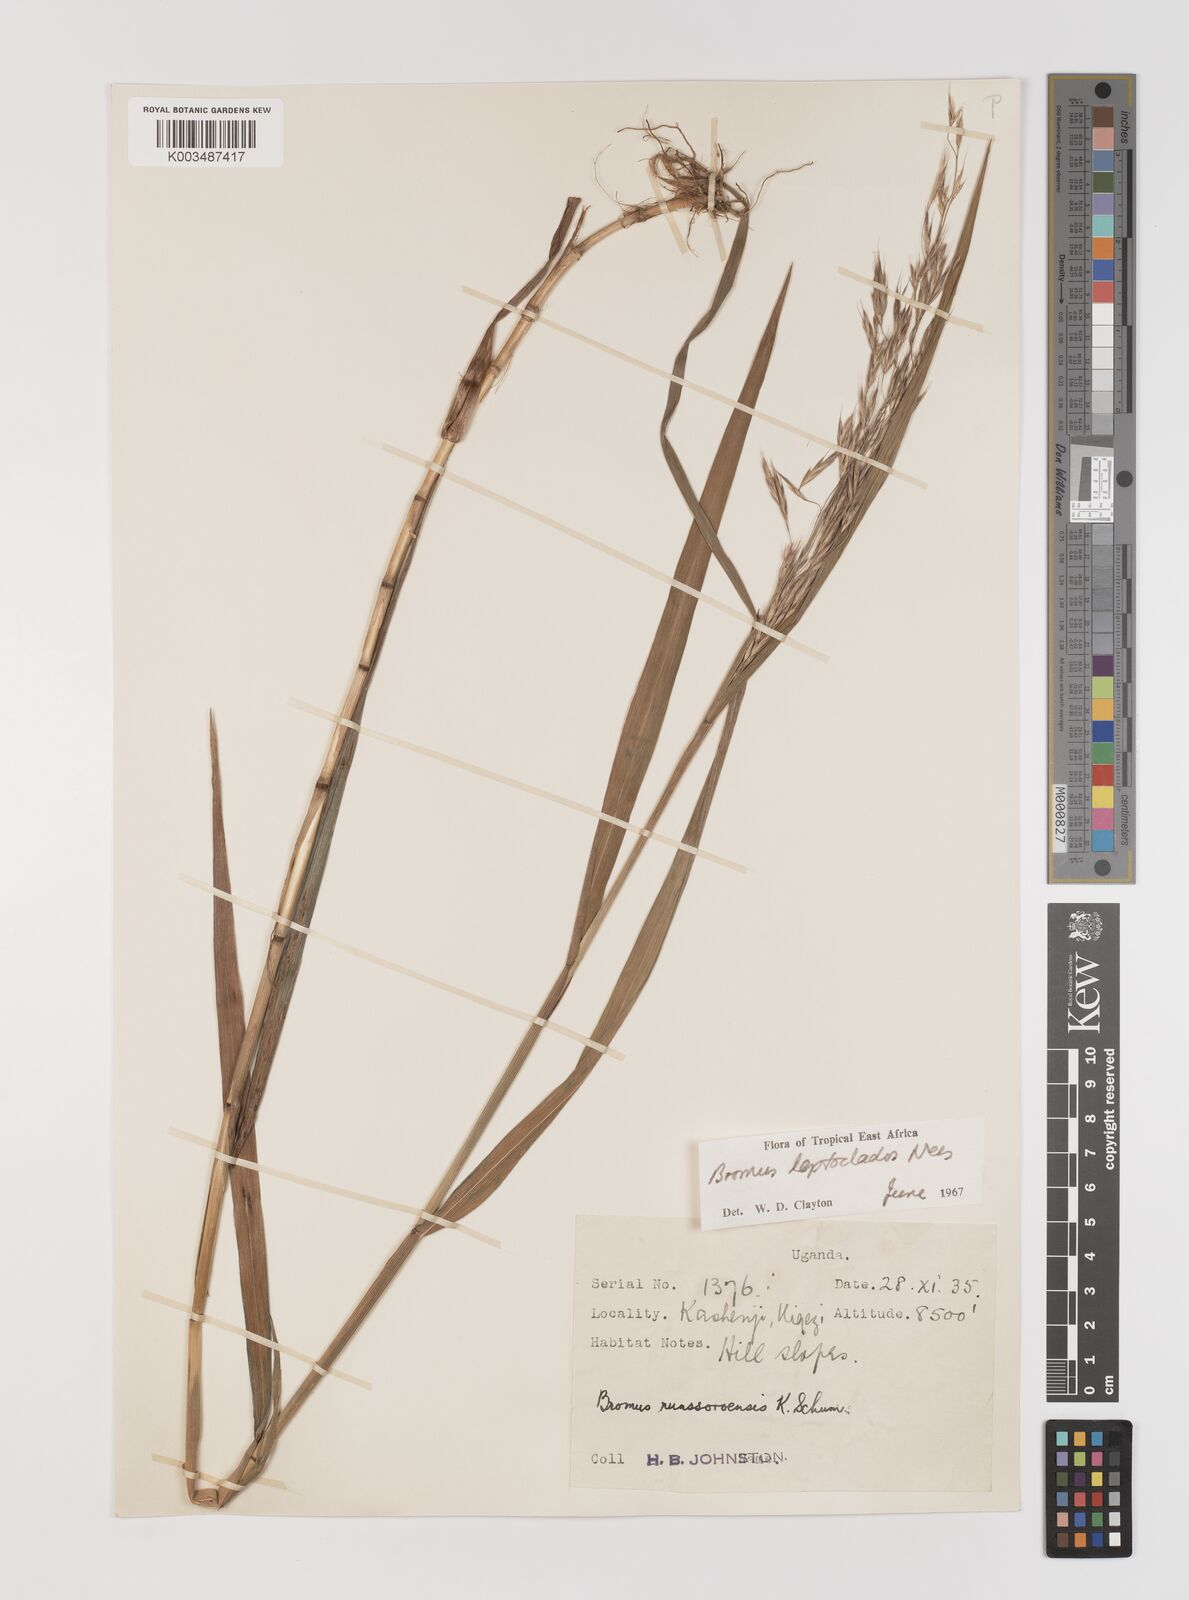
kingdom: Plantae
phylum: Tracheophyta
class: Liliopsida
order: Poales
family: Poaceae
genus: Bromus
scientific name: Bromus leptoclados
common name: Mountain bromegrass
